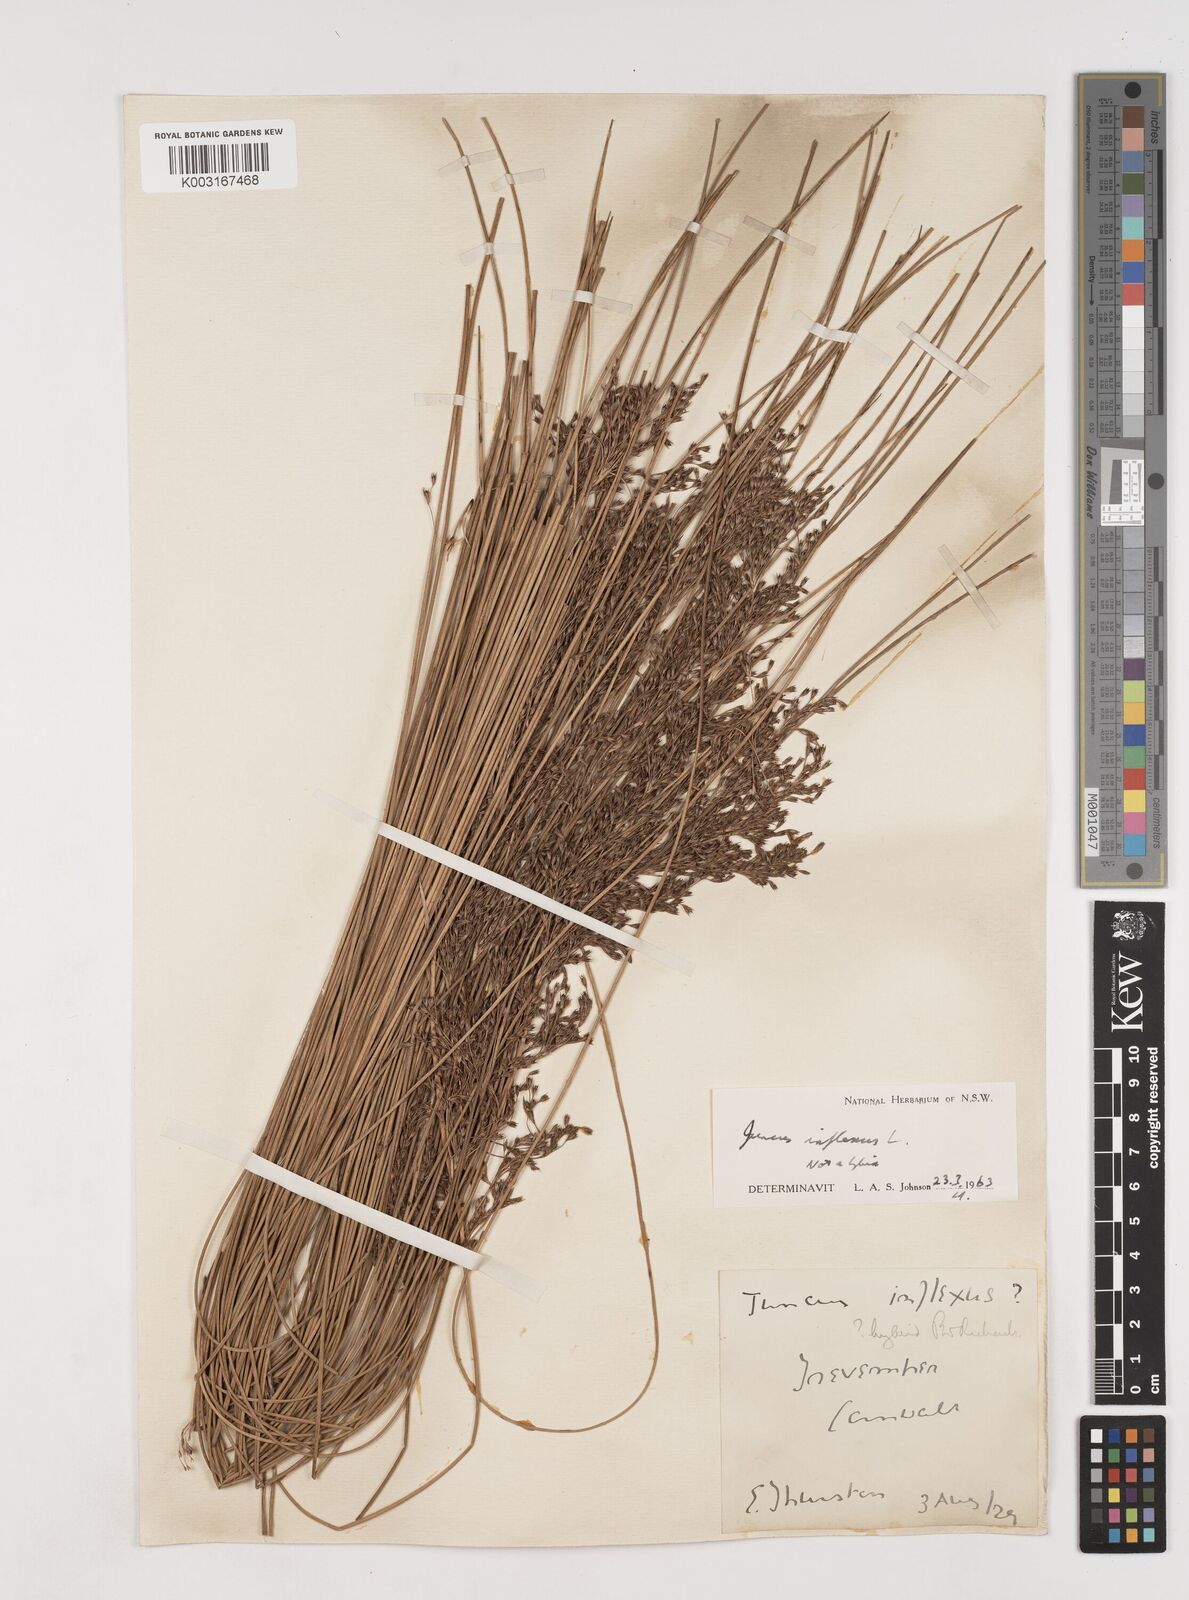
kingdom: Plantae
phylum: Tracheophyta
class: Liliopsida
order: Poales
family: Juncaceae
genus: Juncus
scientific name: Juncus inflexus
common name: Hard rush
